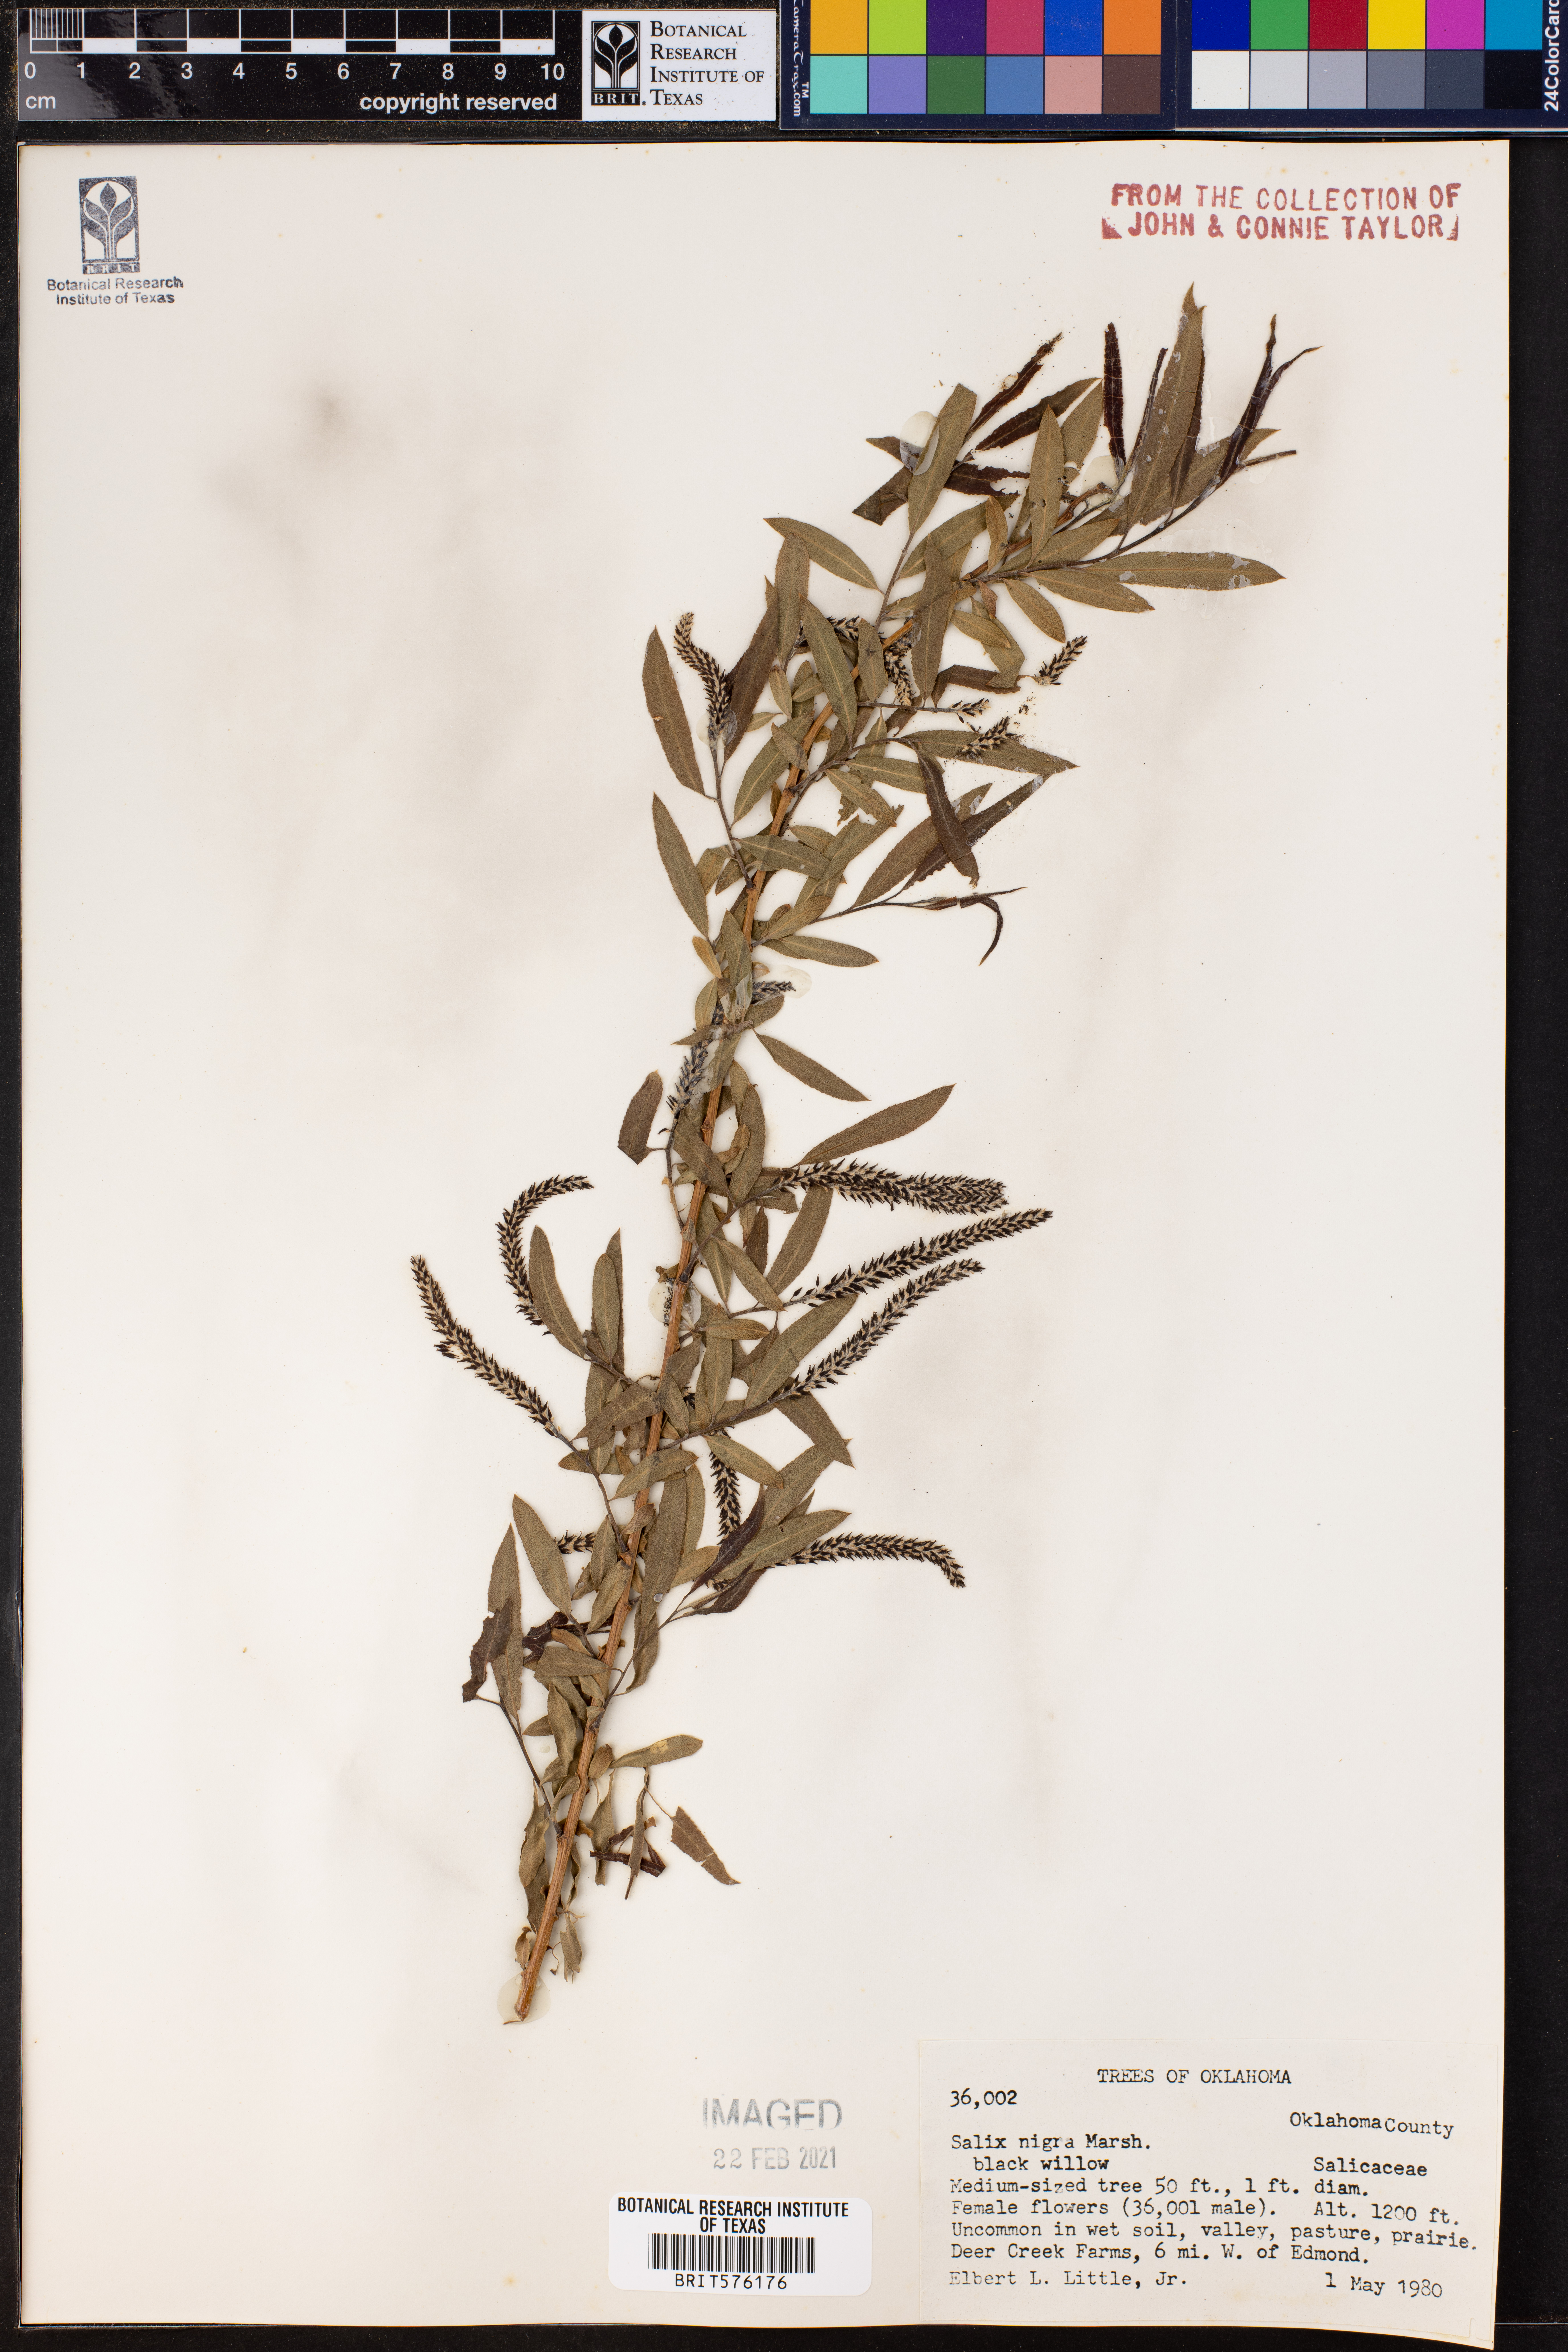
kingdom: Plantae
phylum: Tracheophyta
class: Magnoliopsida
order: Malpighiales
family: Salicaceae
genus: Salix
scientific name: Salix nigra
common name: Black willow
